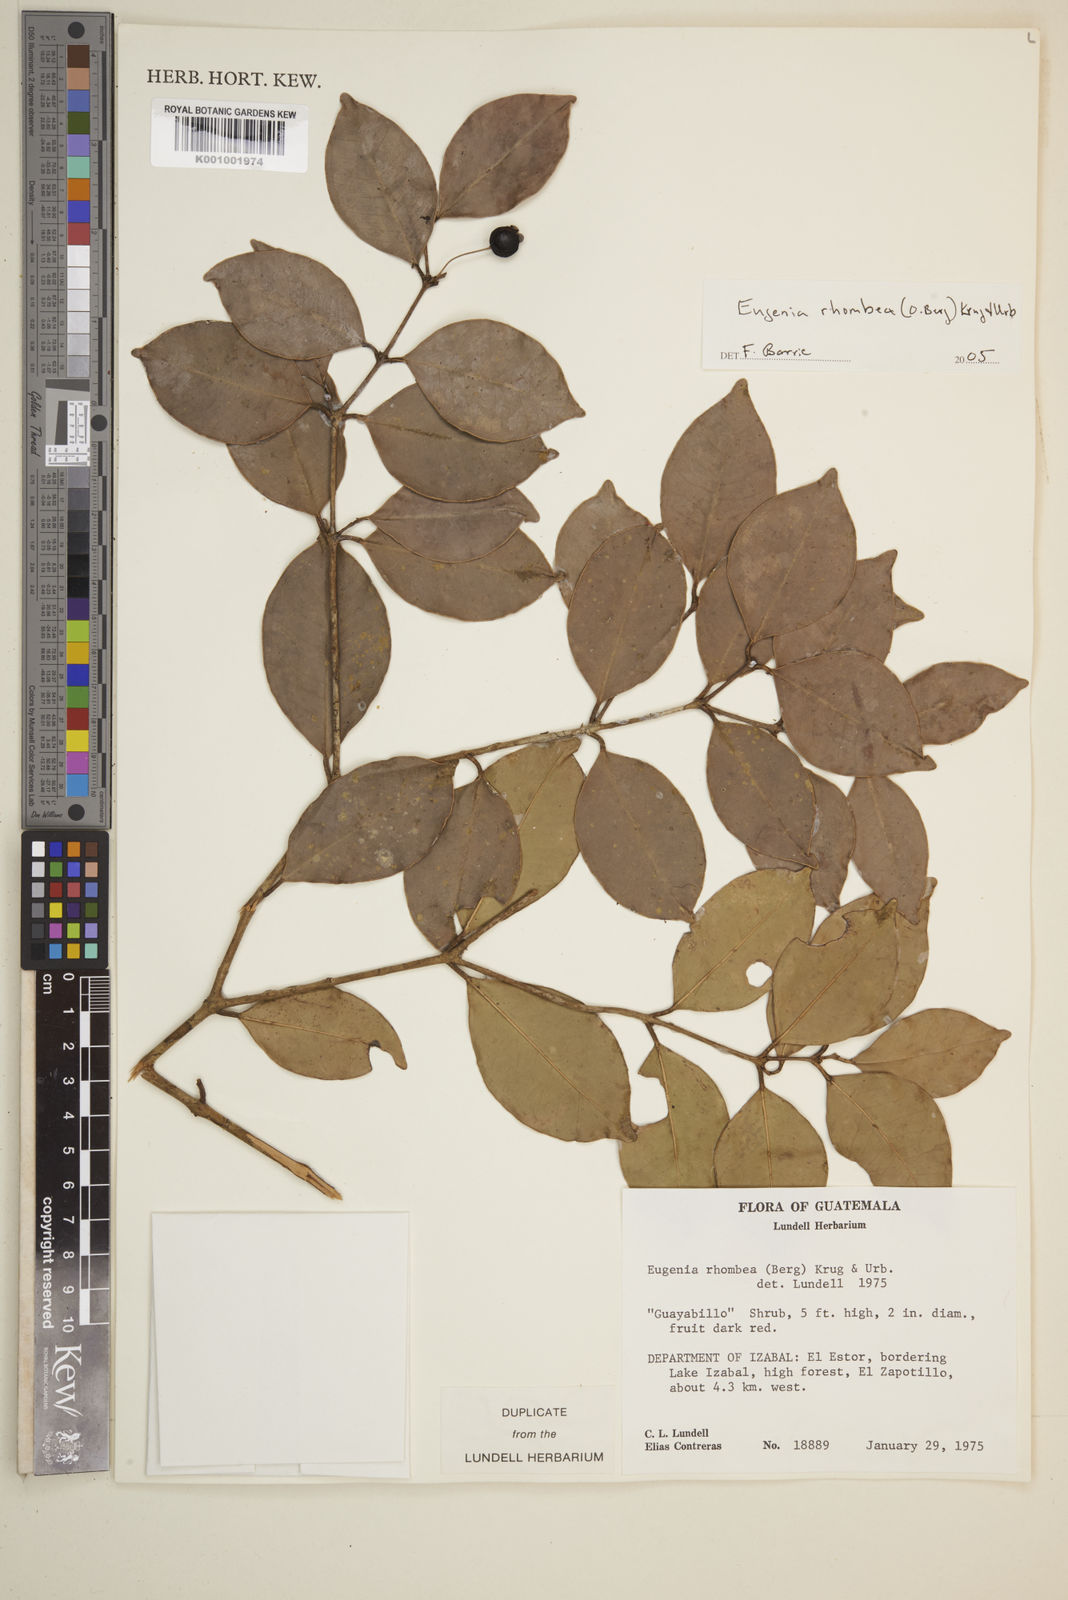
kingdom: Plantae
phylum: Tracheophyta
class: Magnoliopsida
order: Myrtales
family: Myrtaceae
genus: Eugenia
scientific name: Eugenia rhombea
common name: Pigeon berry
